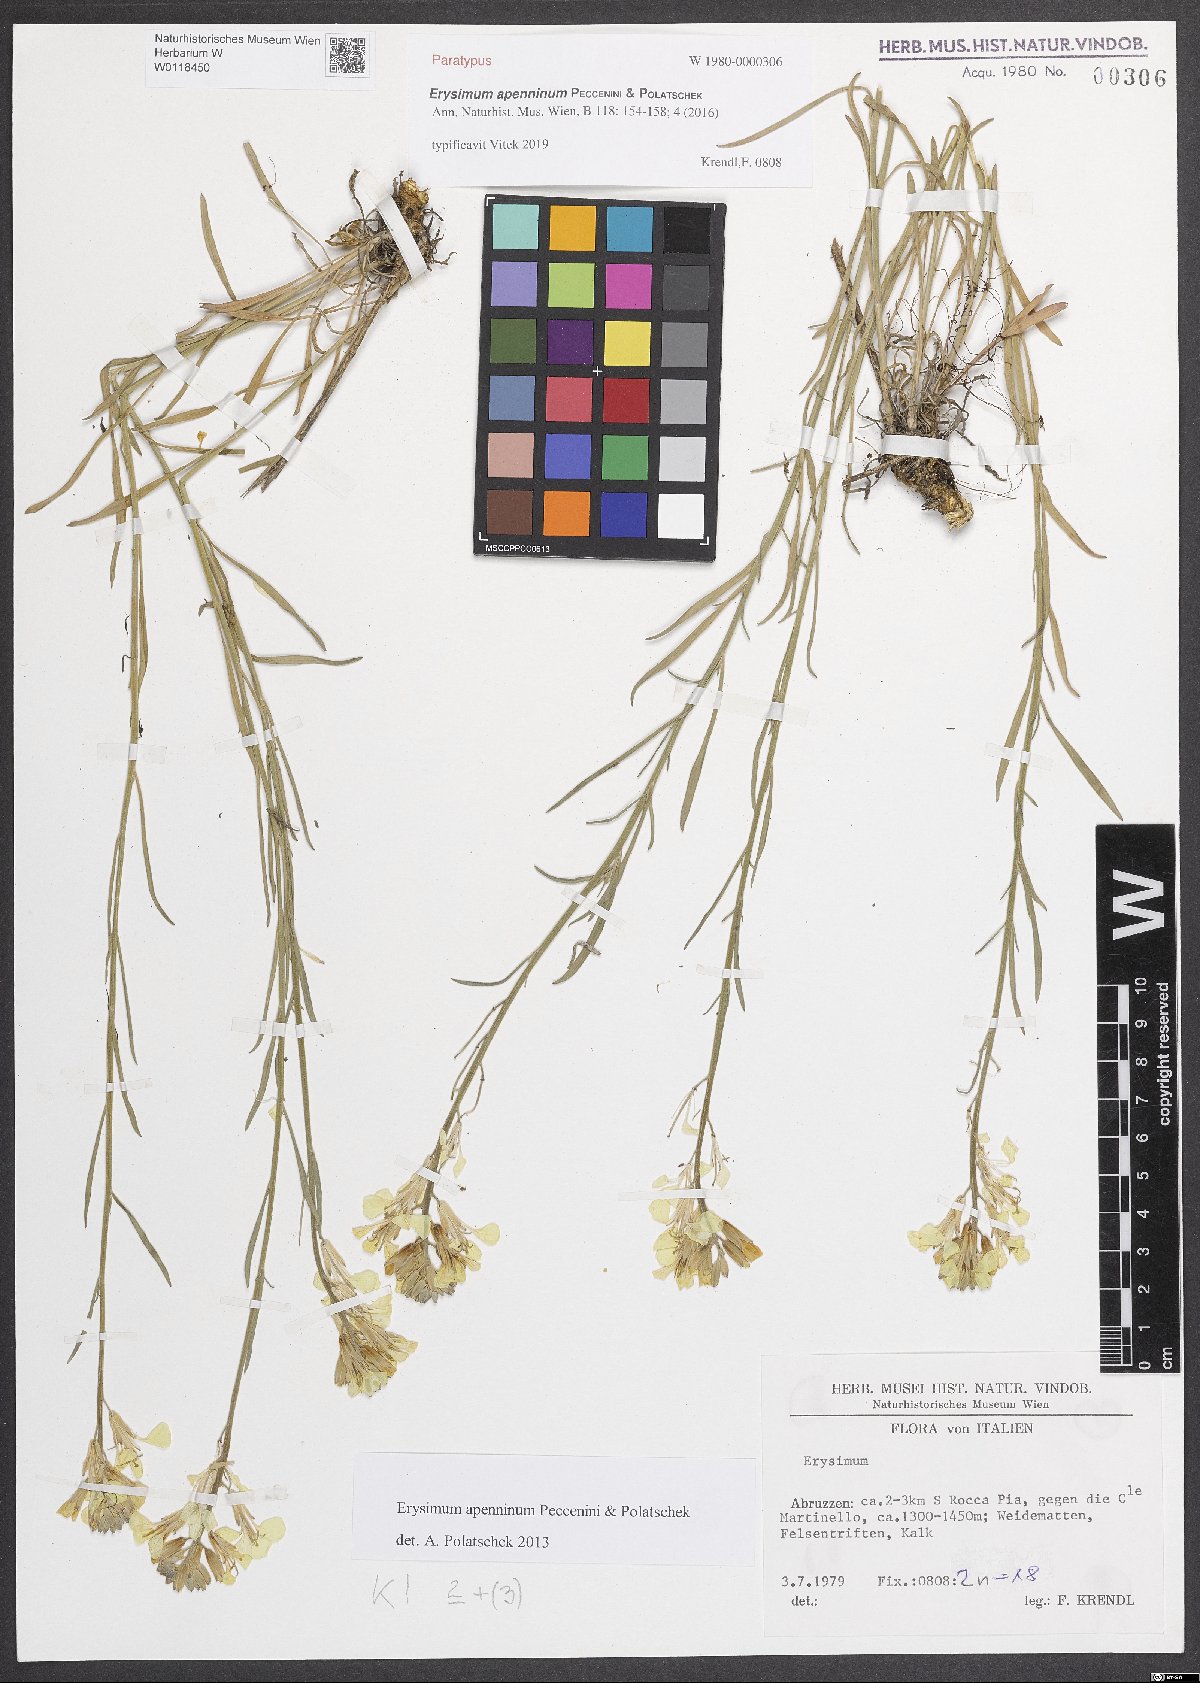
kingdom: Plantae
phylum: Tracheophyta
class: Magnoliopsida
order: Brassicales
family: Brassicaceae
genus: Erysimum
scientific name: Erysimum apenninum
